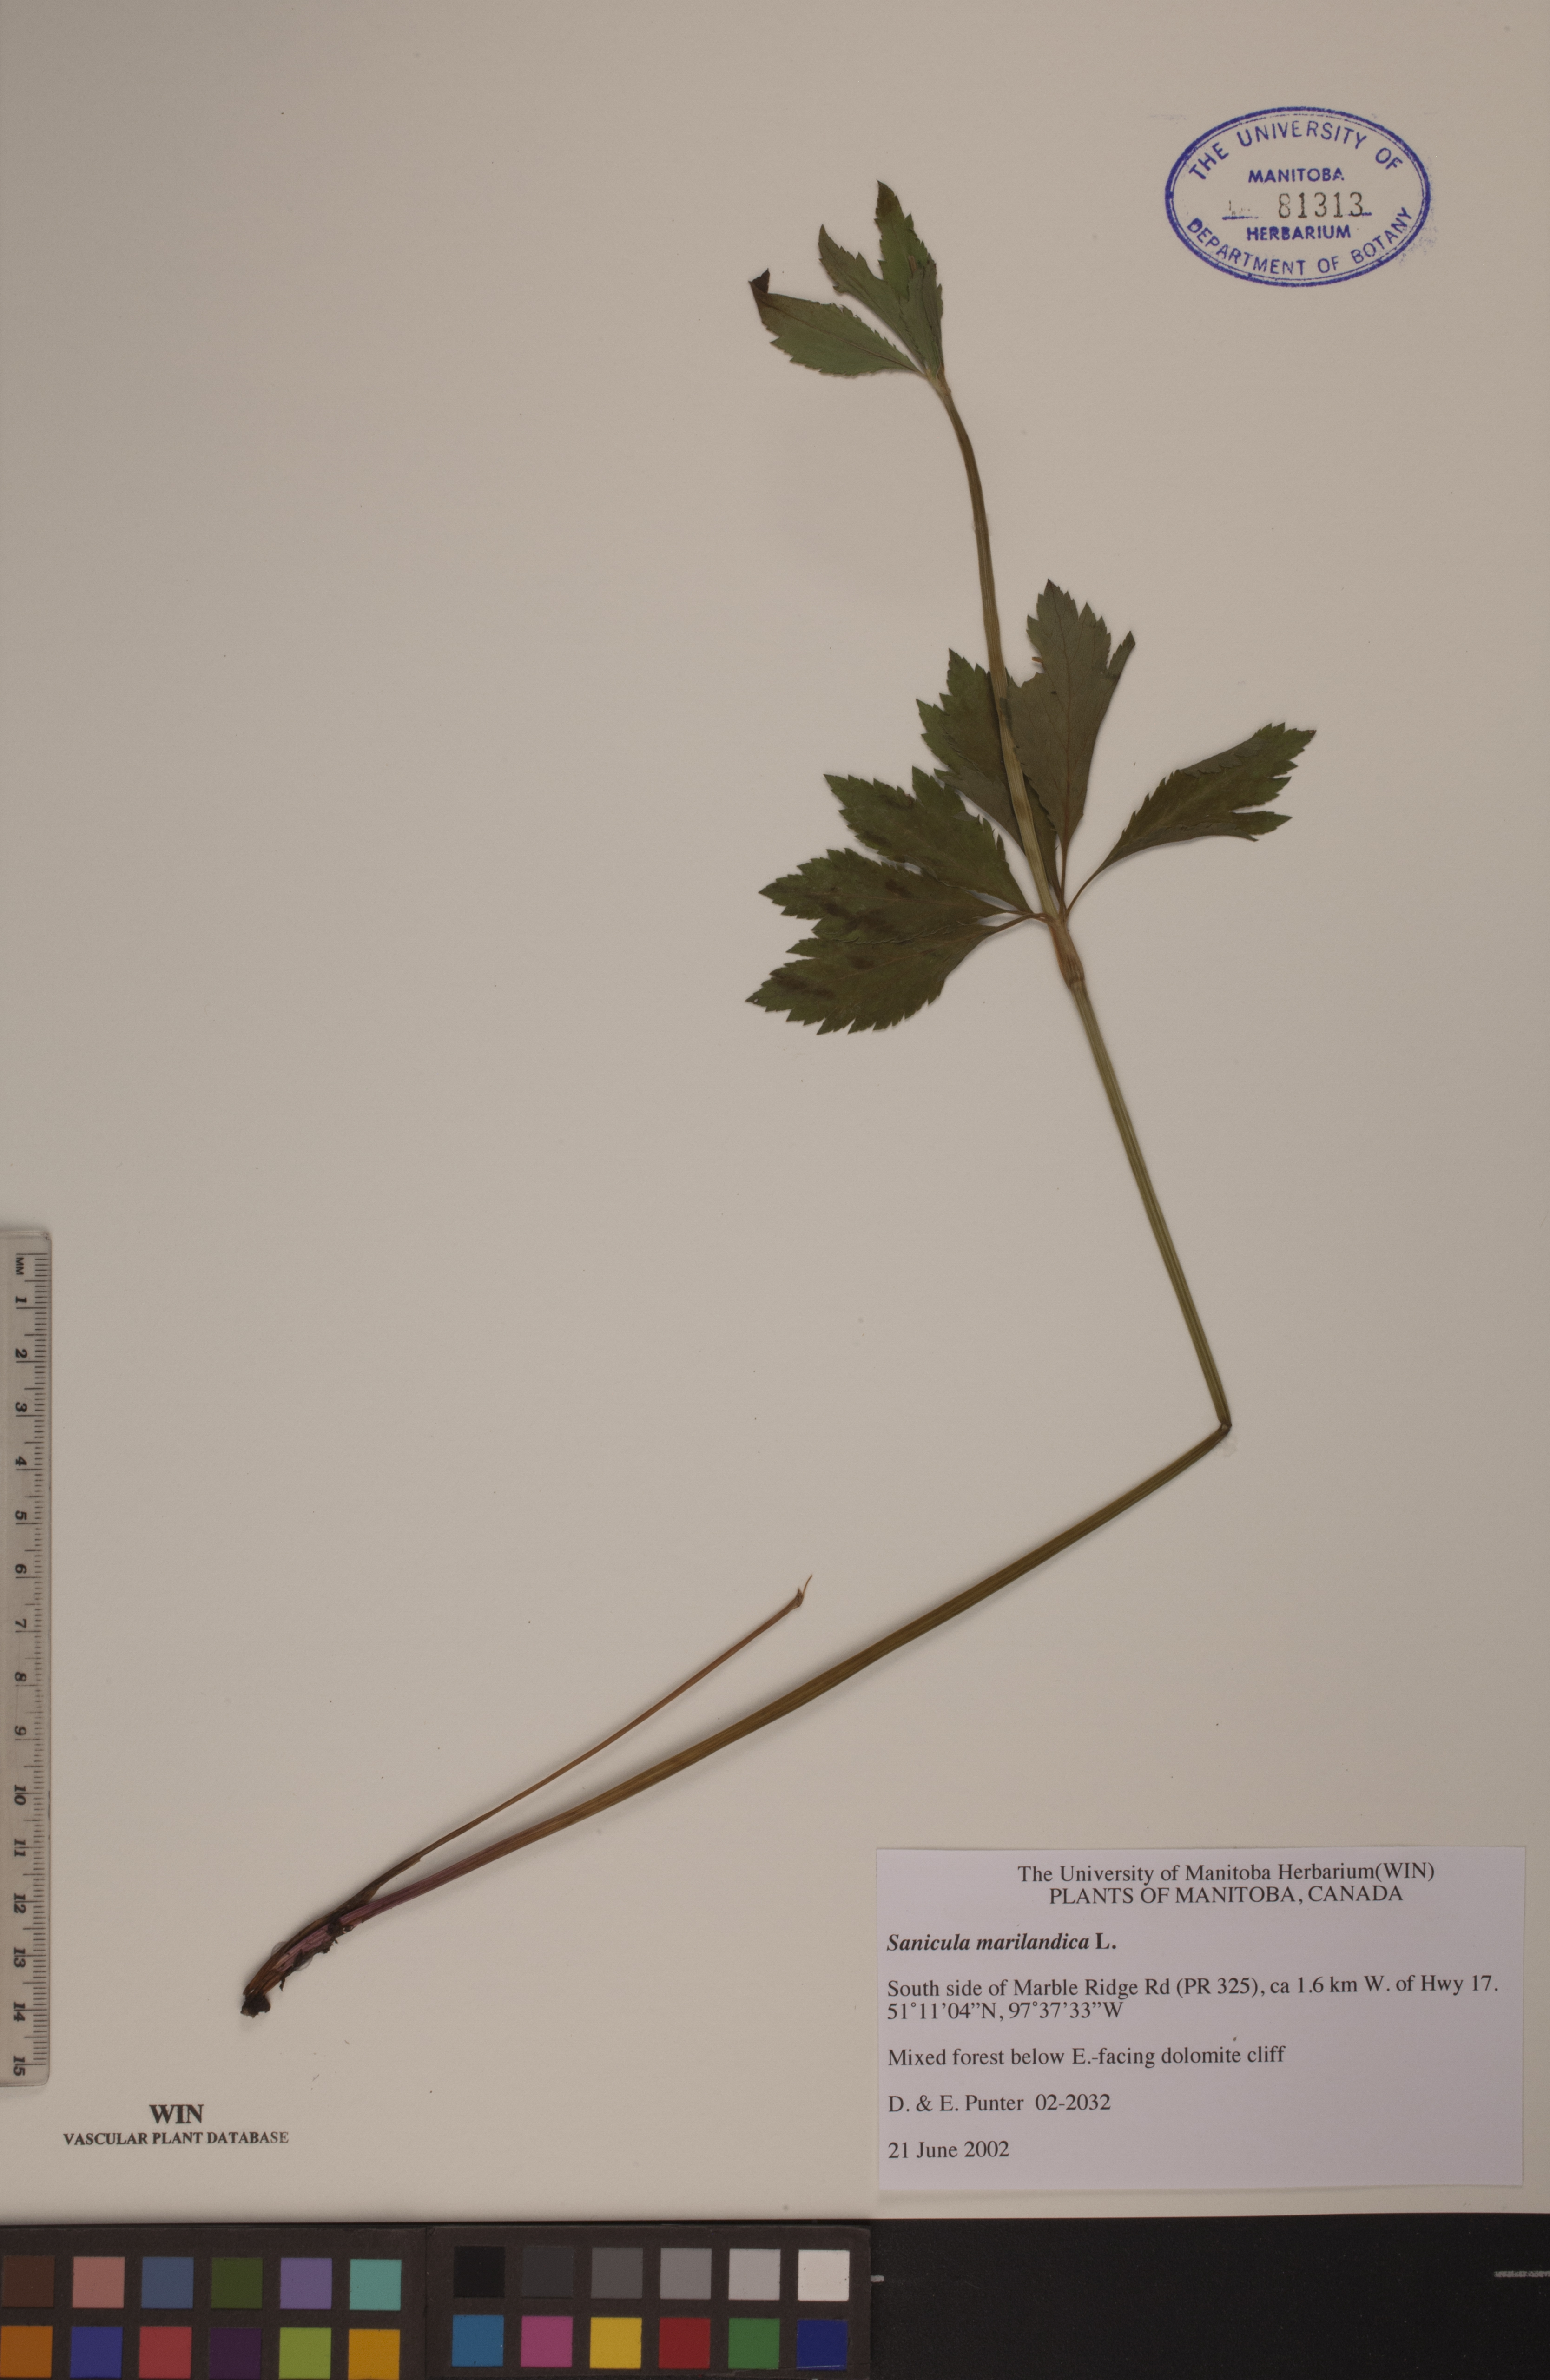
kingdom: Plantae
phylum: Tracheophyta
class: Magnoliopsida
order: Apiales
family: Apiaceae
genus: Sanicula
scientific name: Sanicula marilandica
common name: Black snakeroot
